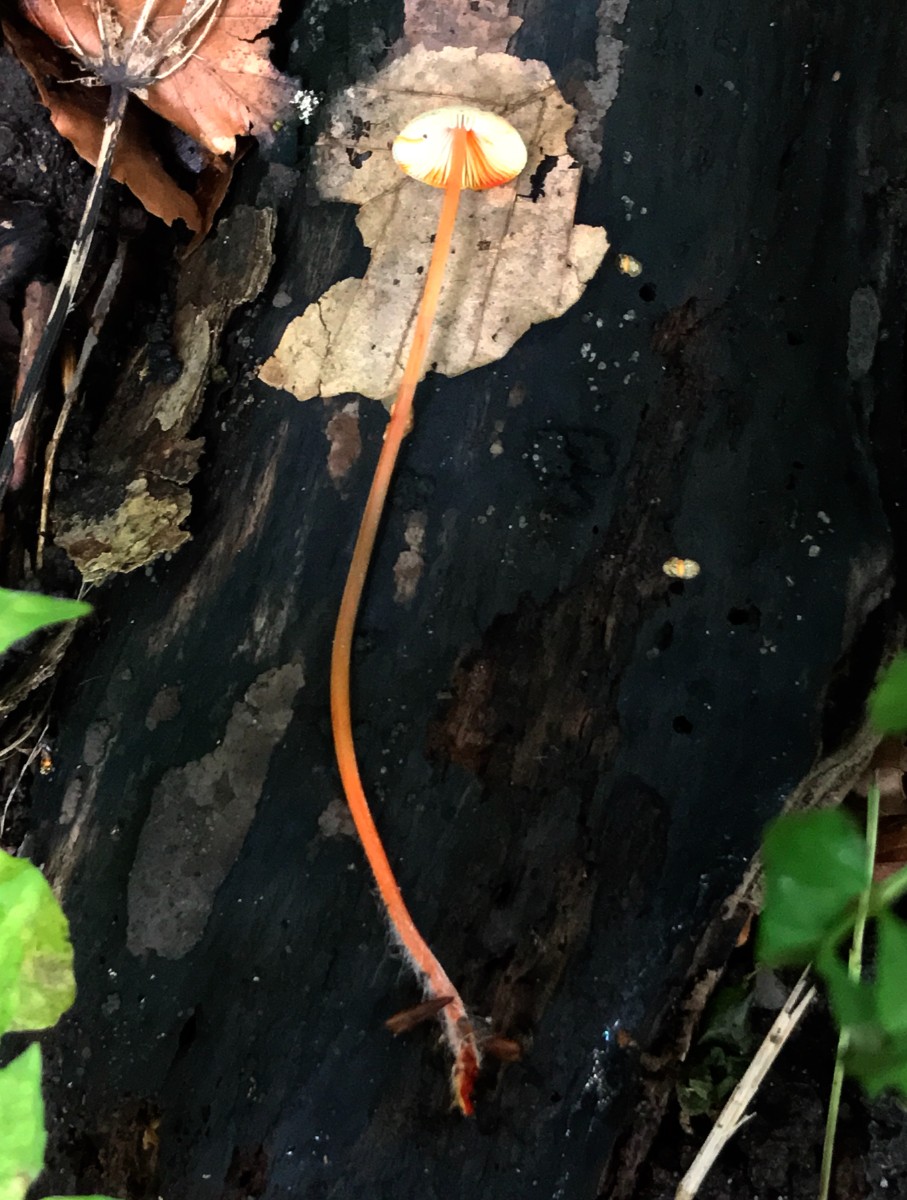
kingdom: Fungi
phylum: Basidiomycota
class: Agaricomycetes
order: Agaricales
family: Mycenaceae
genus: Mycena
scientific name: Mycena crocata
